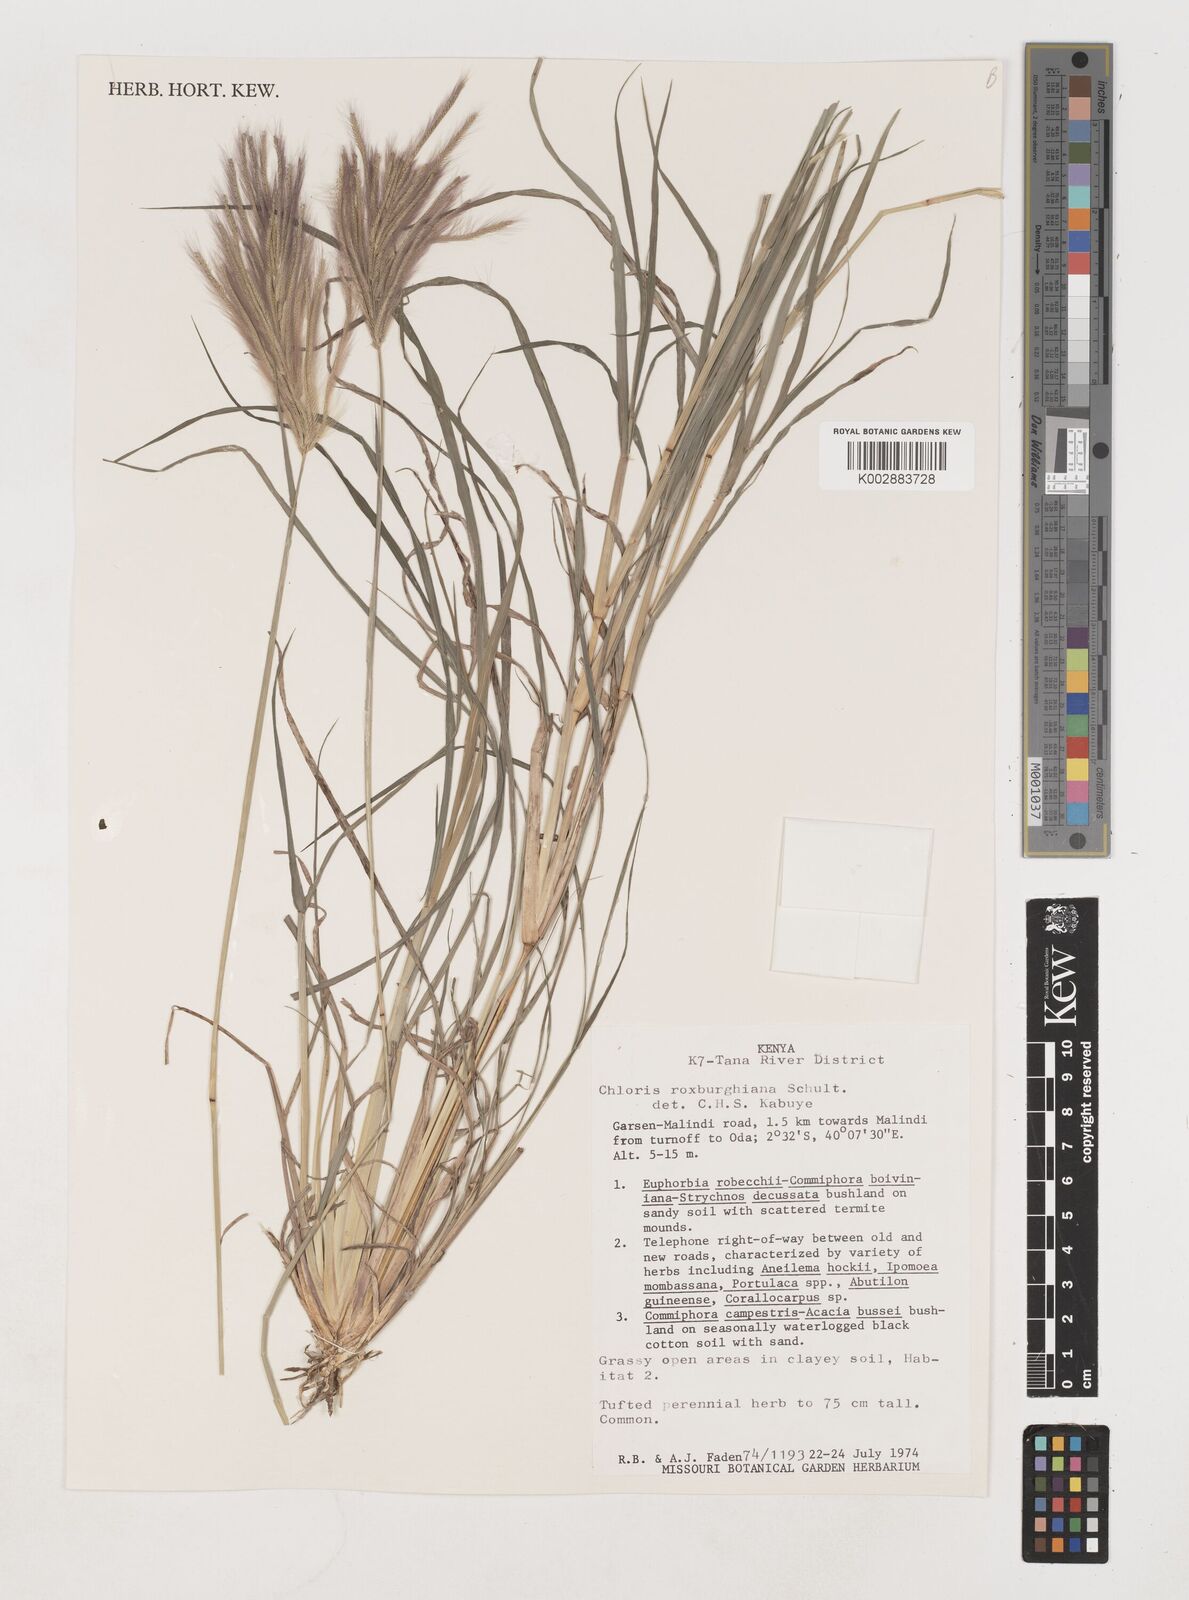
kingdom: Plantae
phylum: Tracheophyta
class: Liliopsida
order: Poales
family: Poaceae
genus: Tetrapogon
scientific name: Tetrapogon roxburghiana
